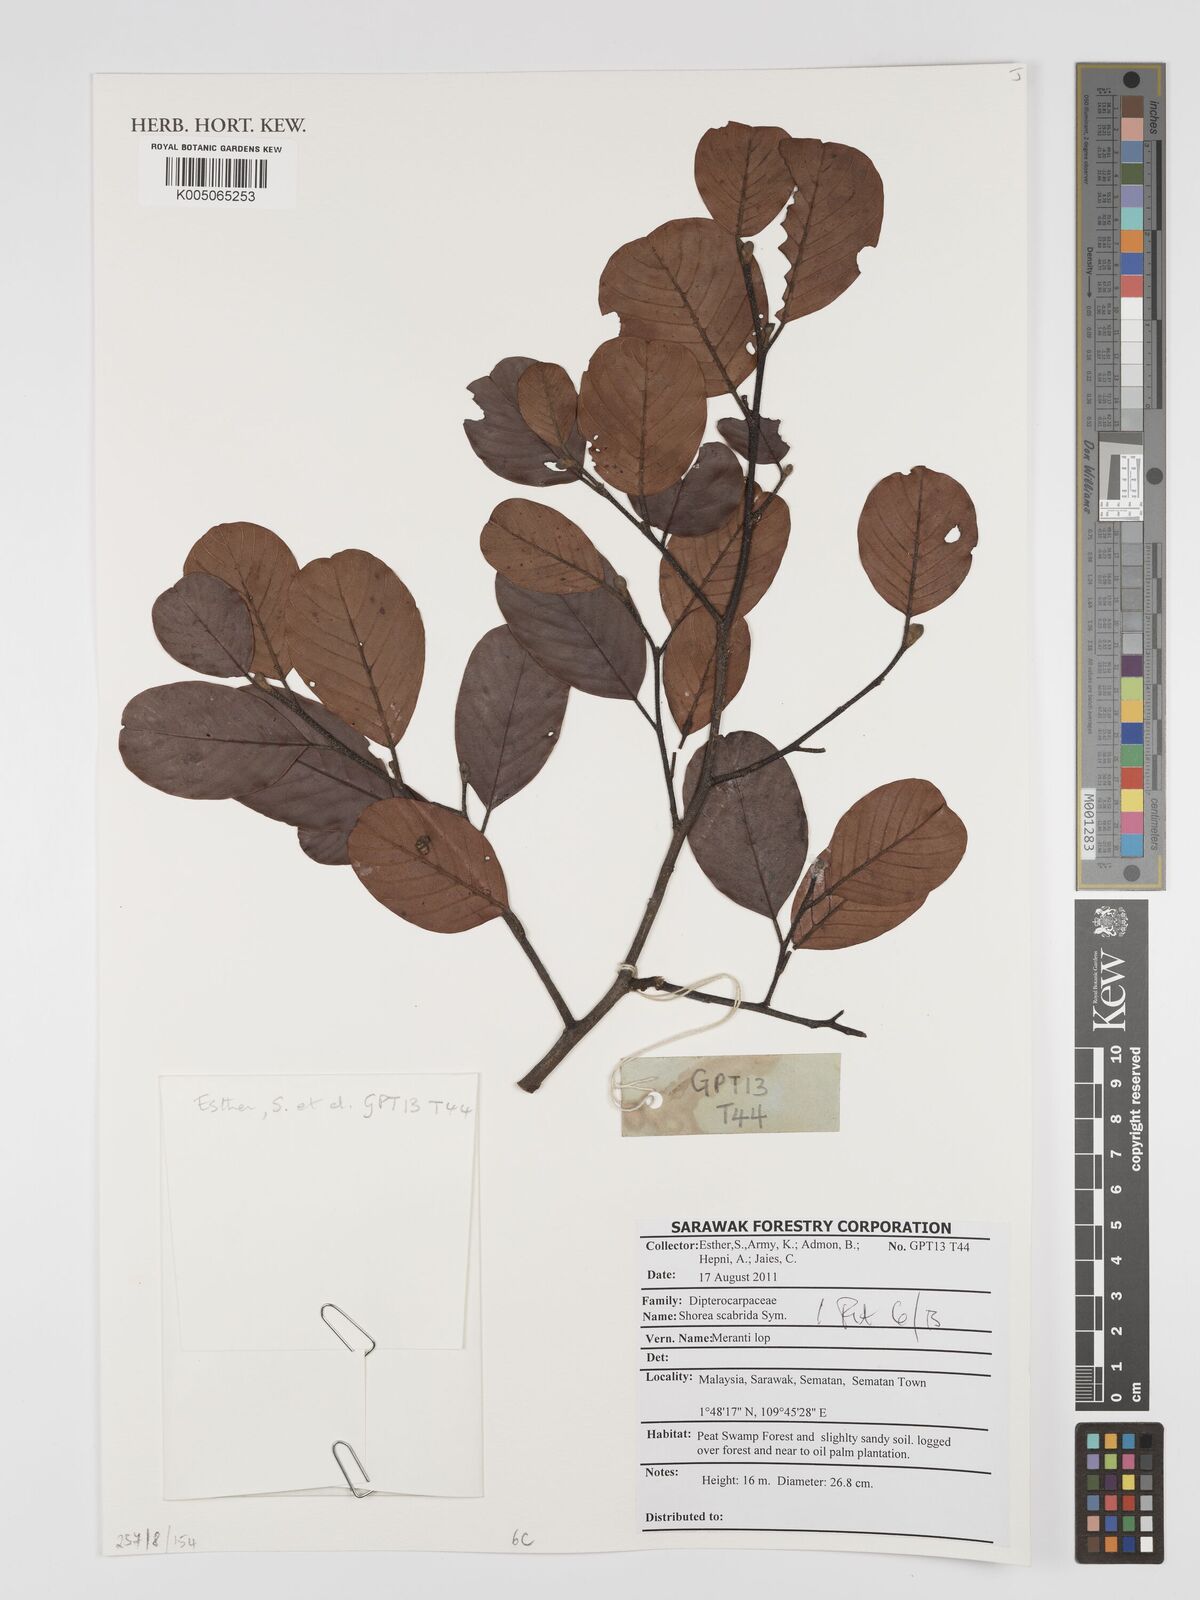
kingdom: Plantae
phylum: Tracheophyta
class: Magnoliopsida
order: Malvales
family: Dipterocarpaceae
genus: Shorea
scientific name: Shorea scabrida
